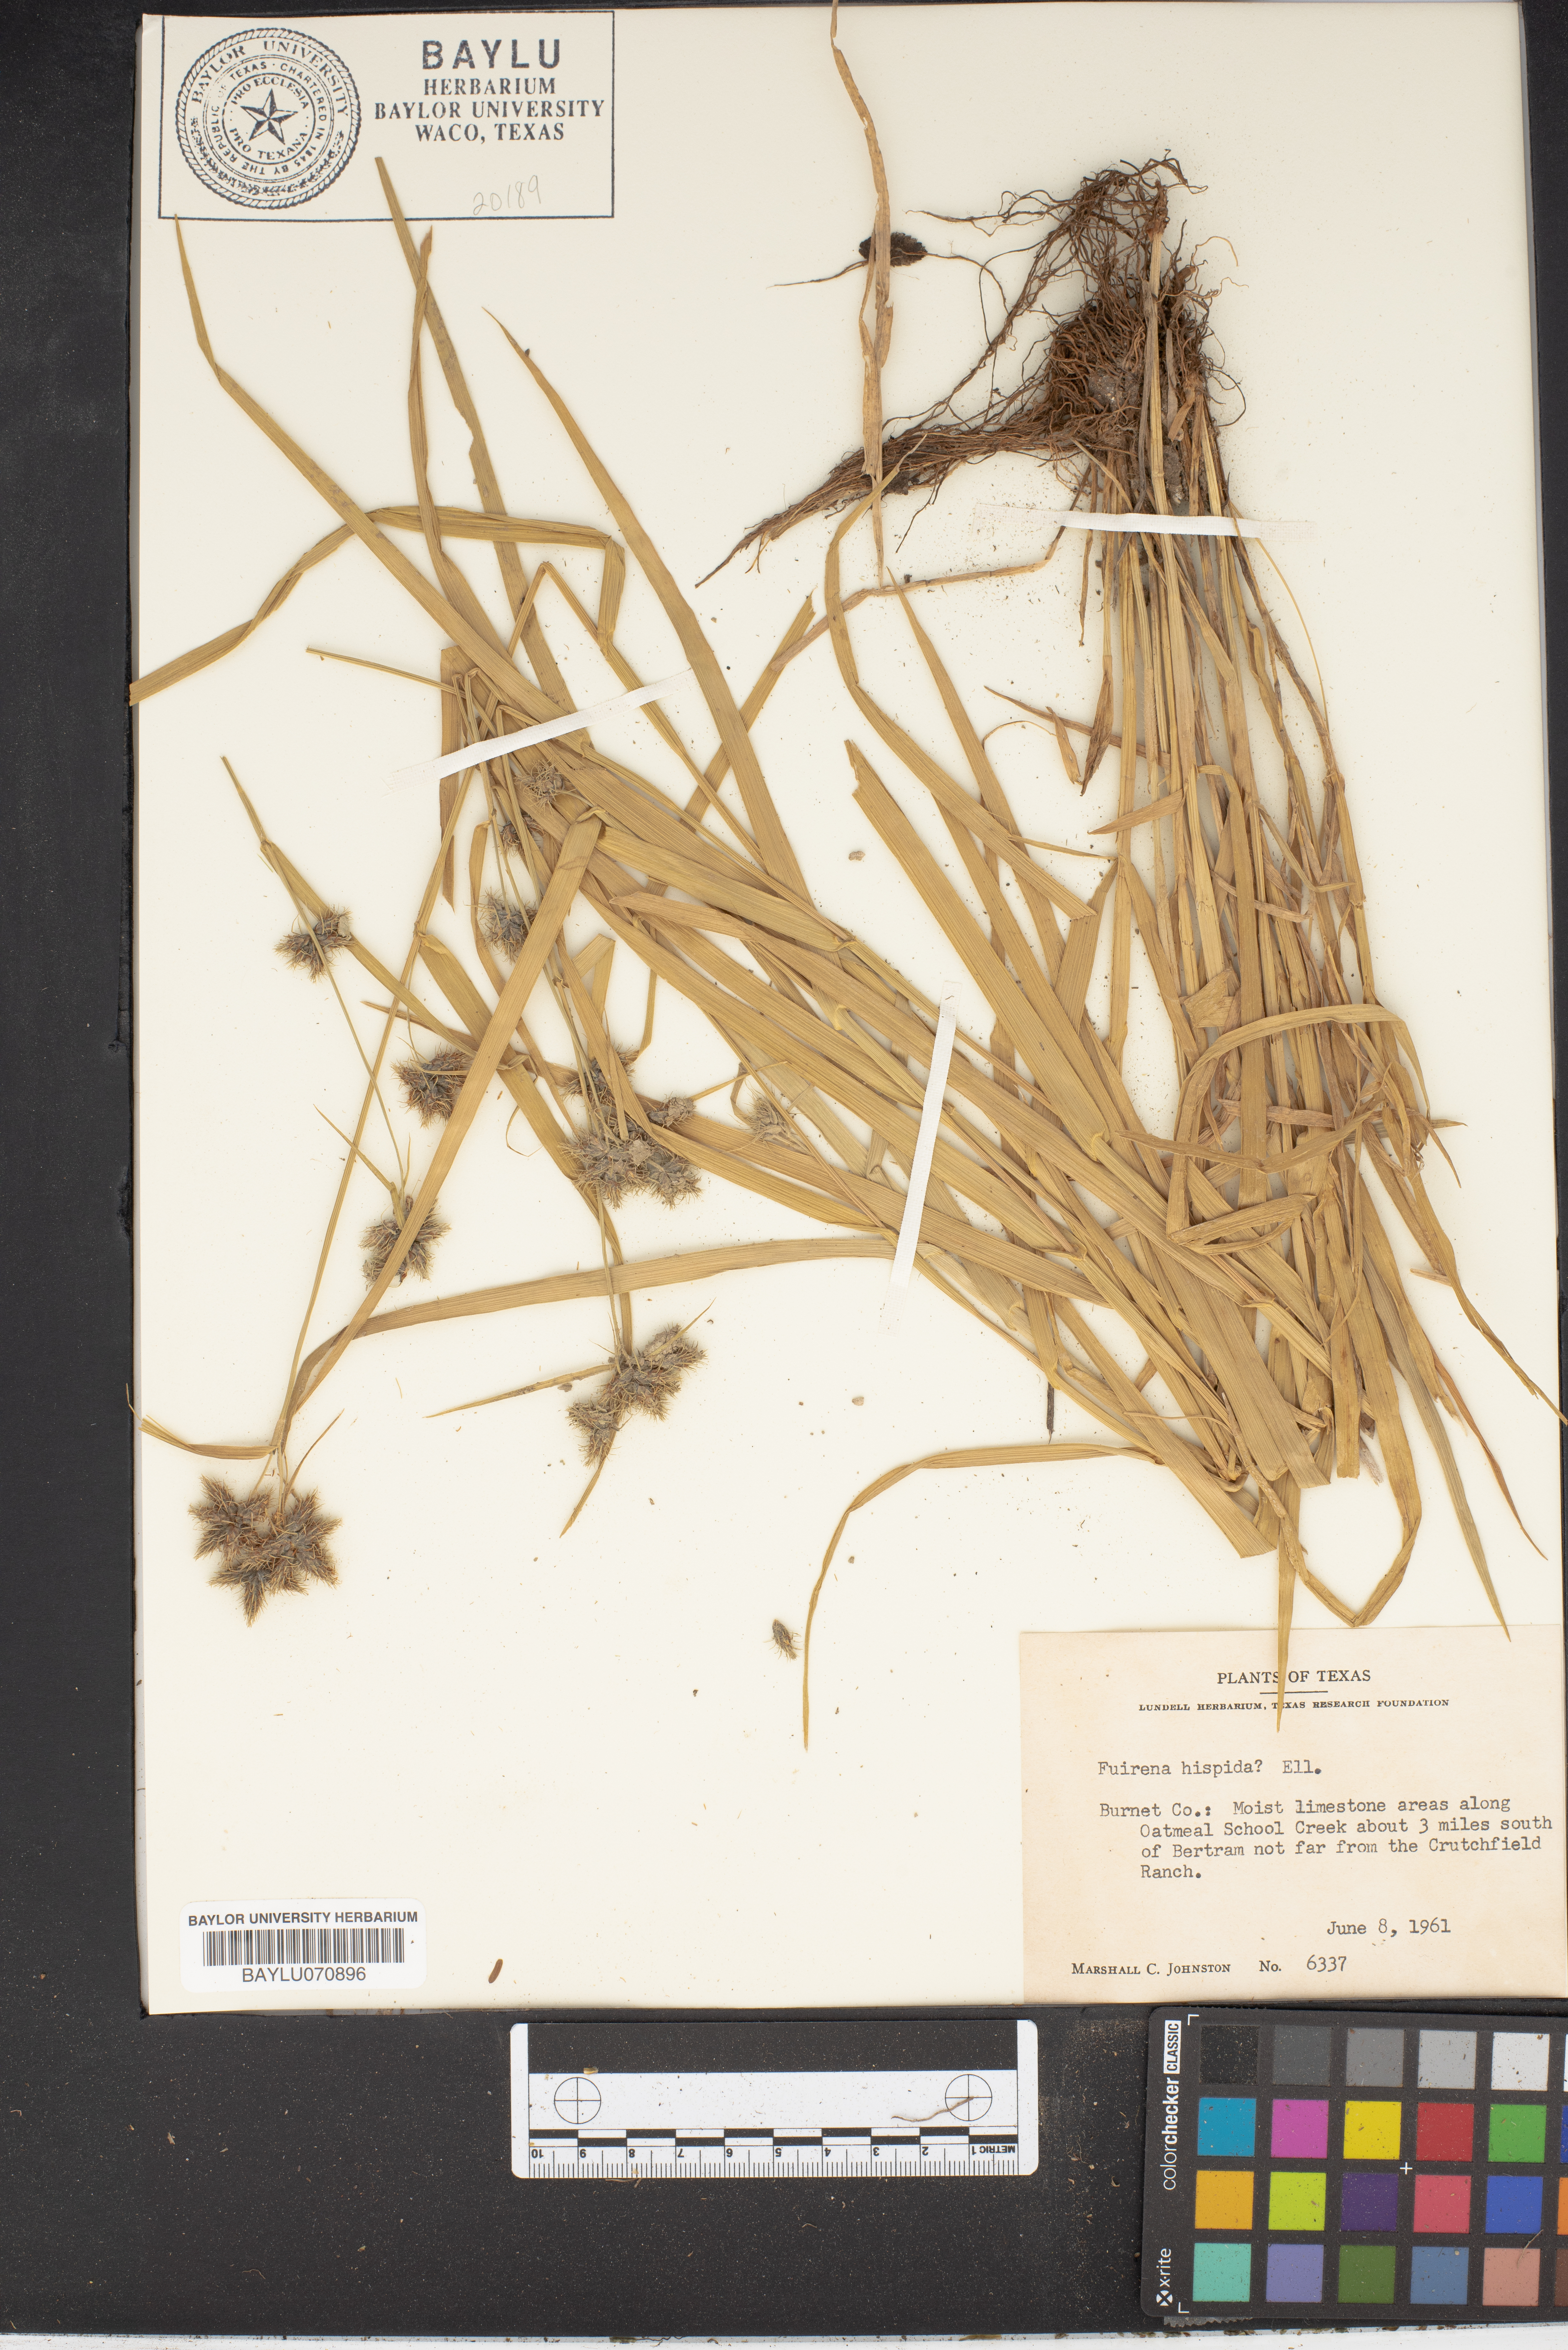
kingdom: Plantae
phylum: Tracheophyta
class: Liliopsida
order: Poales
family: Cyperaceae
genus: Fuirena
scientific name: Fuirena squarrosa
